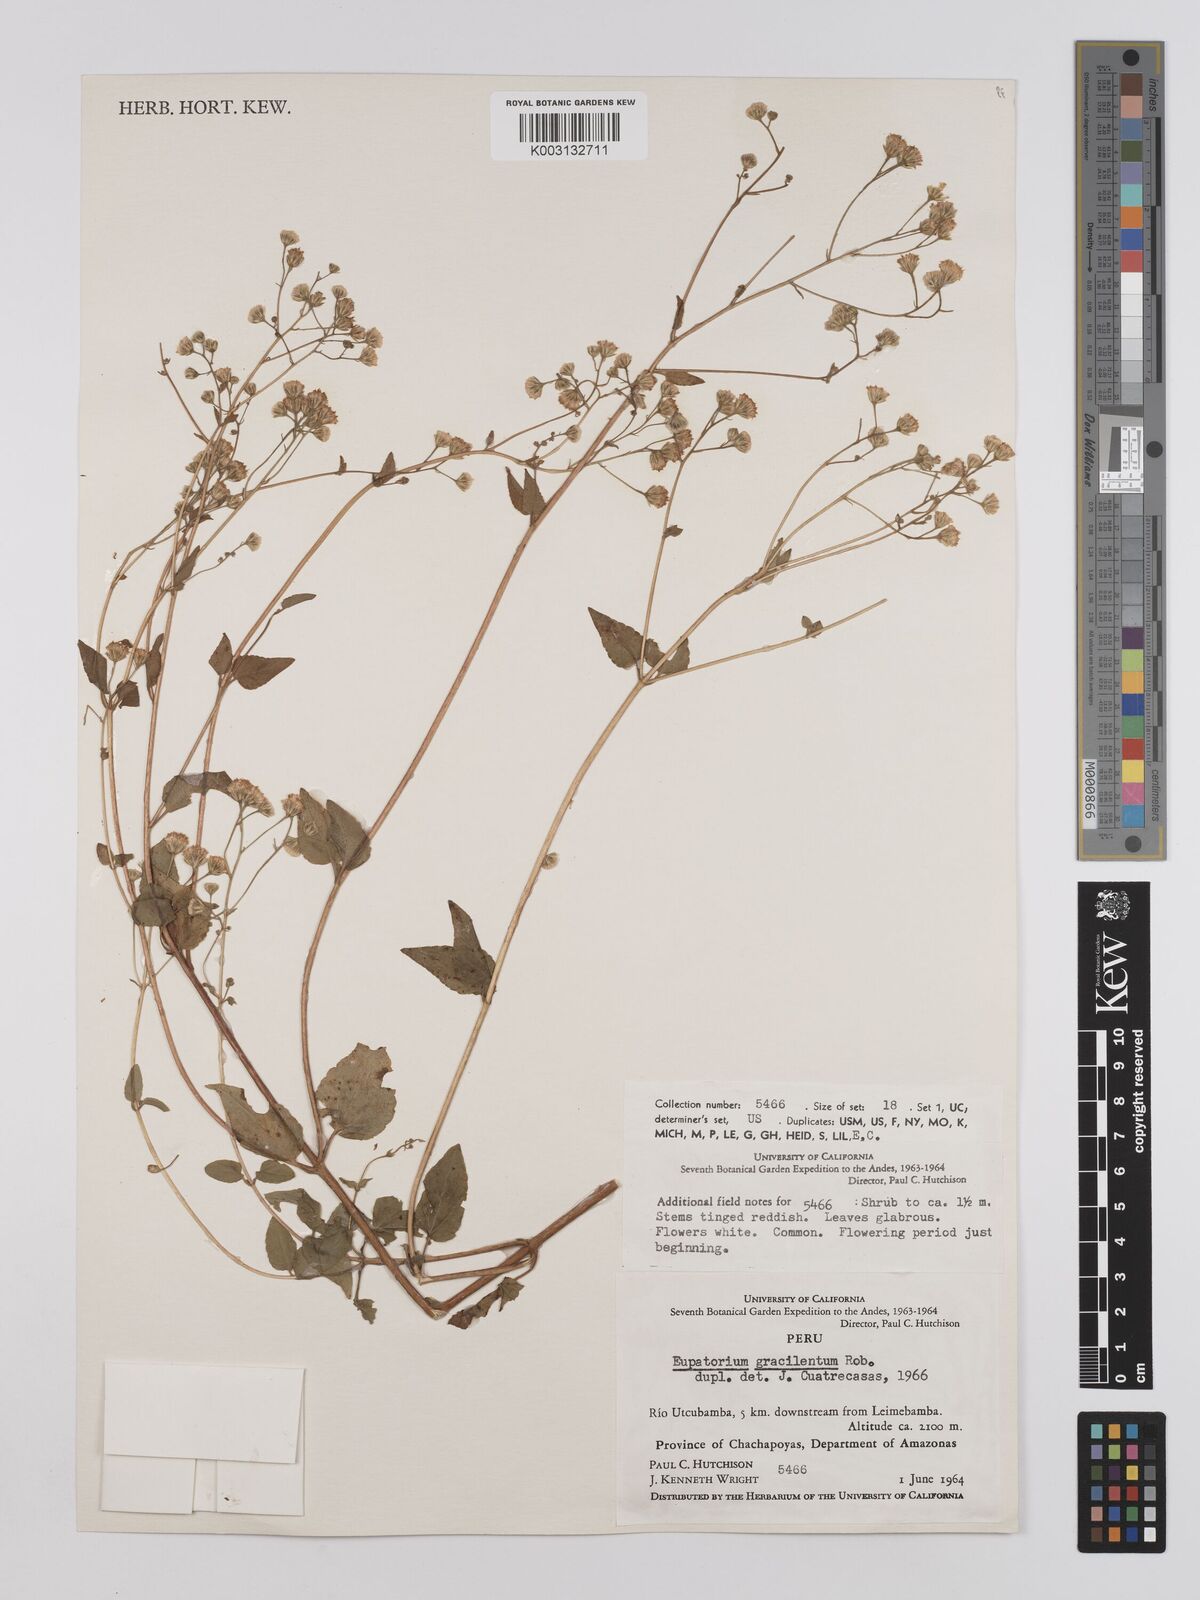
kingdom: Plantae
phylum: Tracheophyta
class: Magnoliopsida
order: Asterales
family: Asteraceae
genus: Ageratina
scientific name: Ageratina gracilenta
